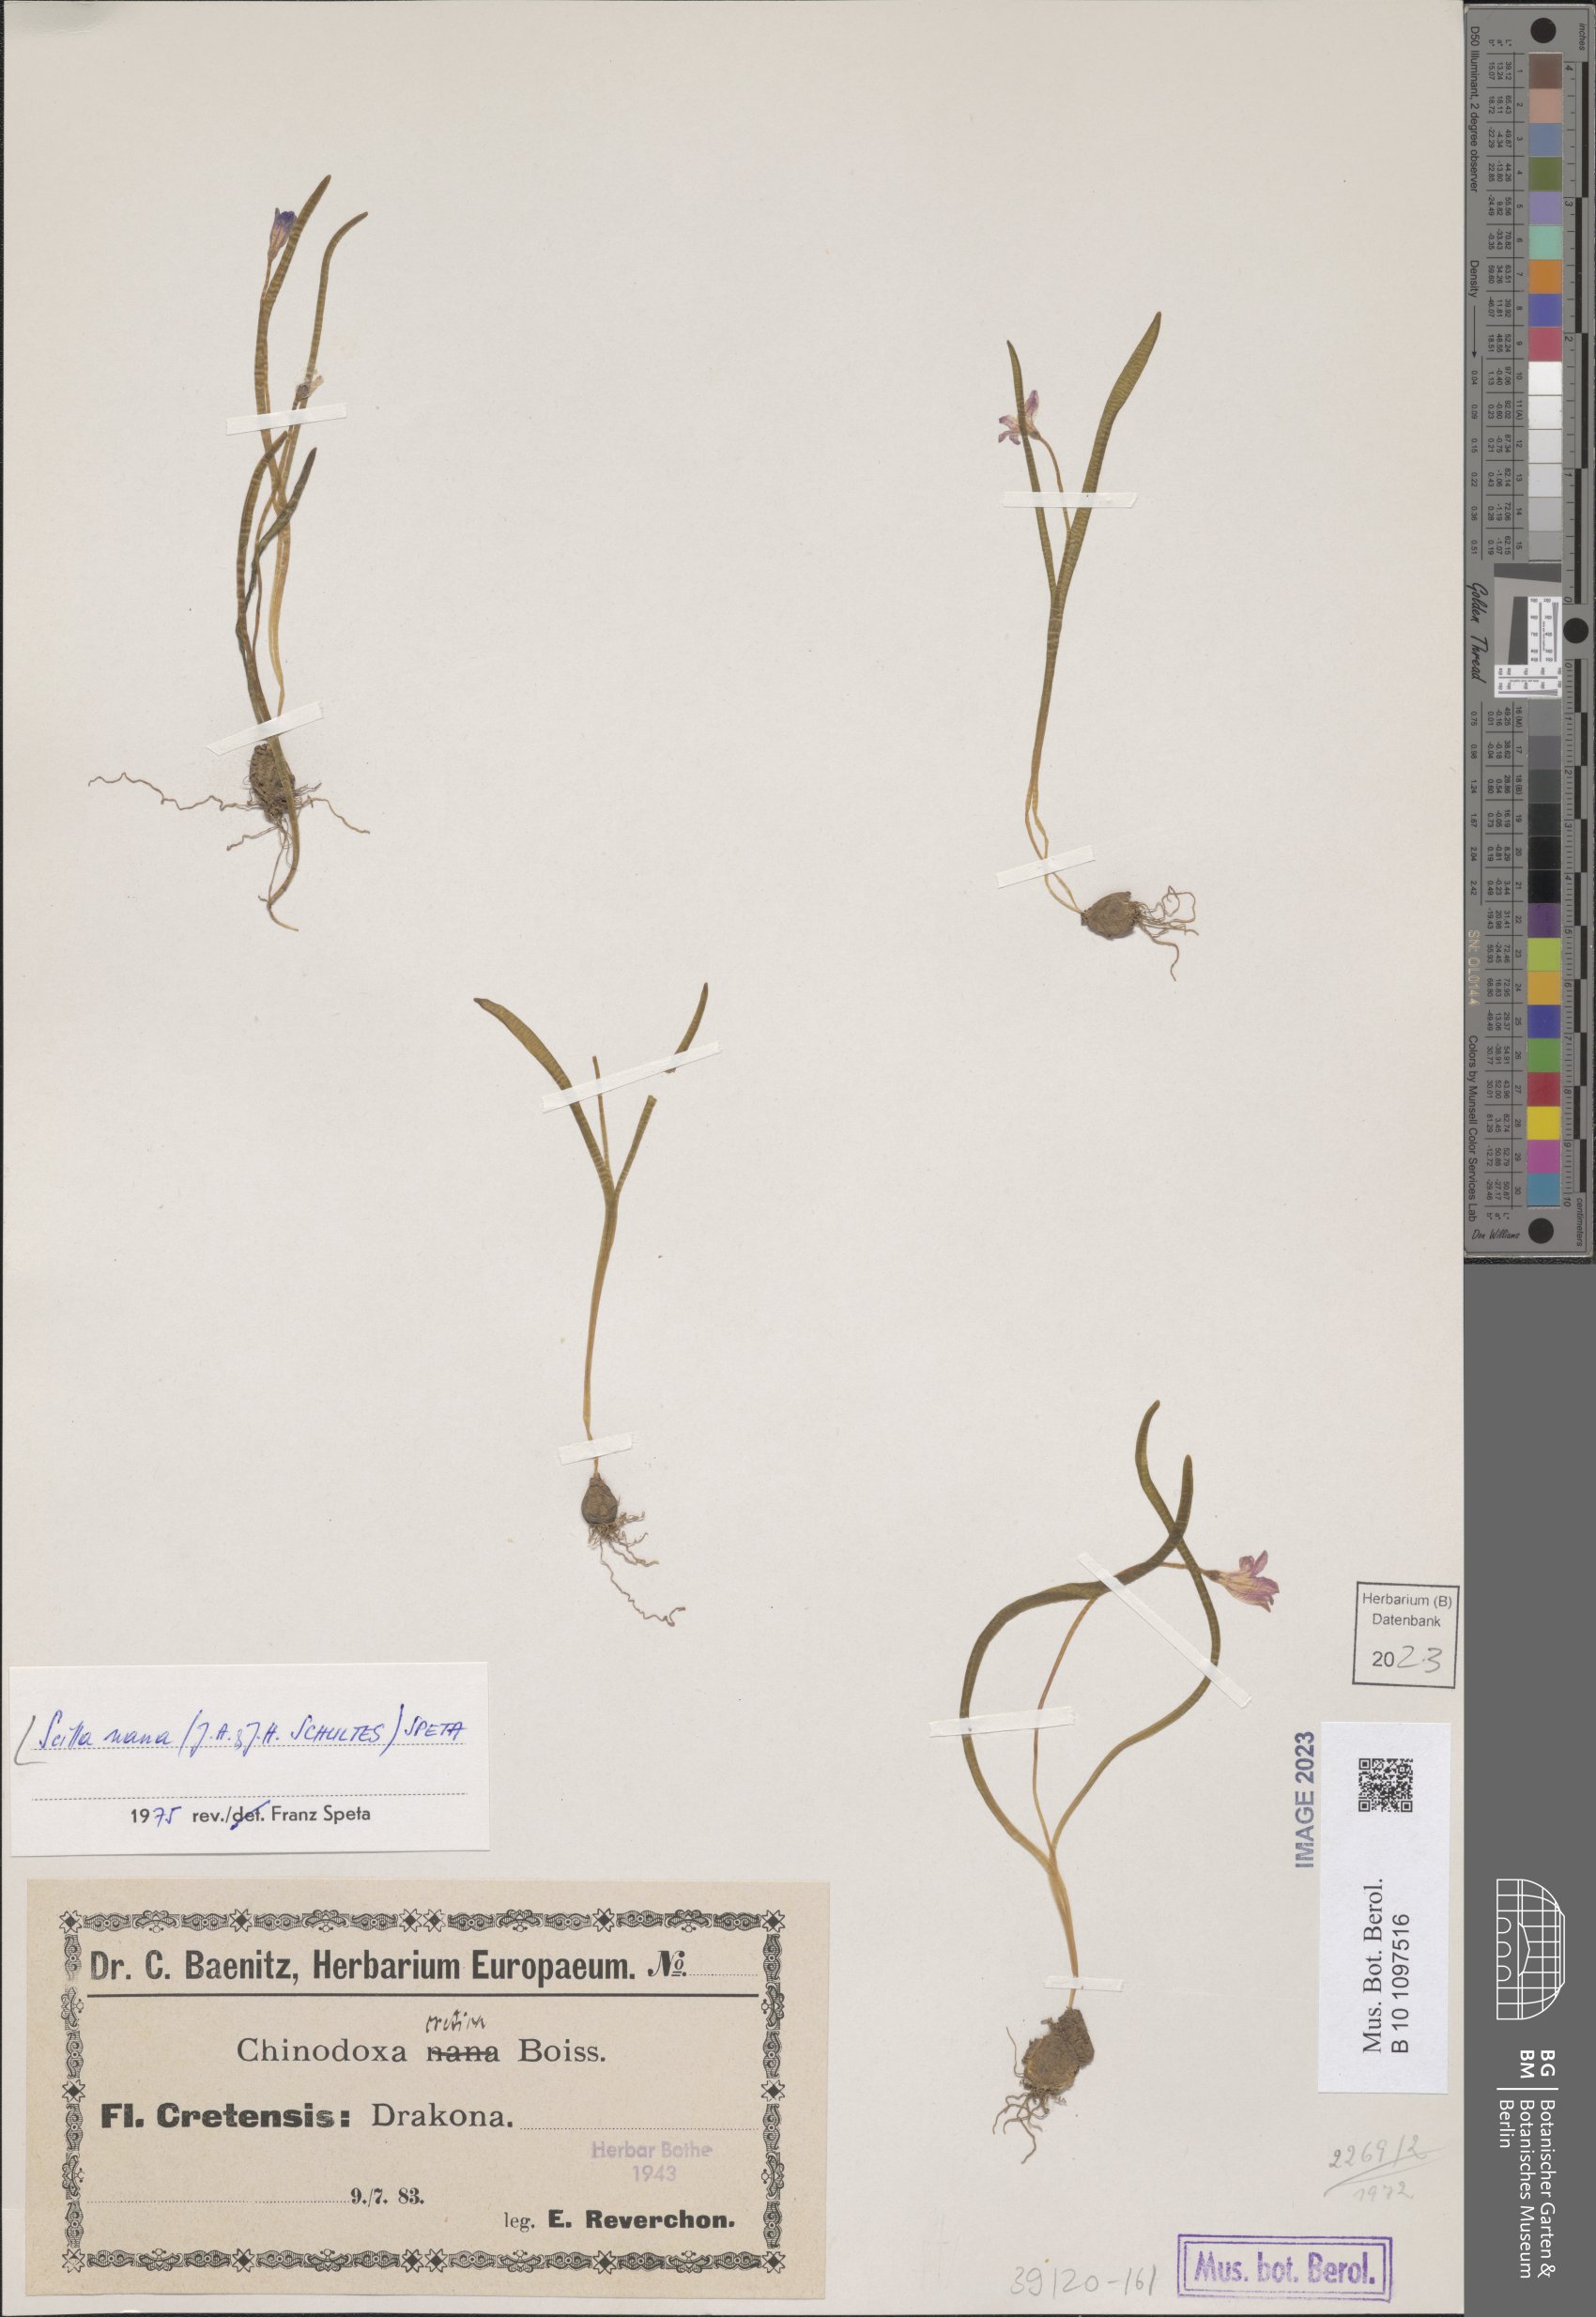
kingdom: Plantae
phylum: Tracheophyta
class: Liliopsida
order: Asparagales
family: Asparagaceae
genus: Scilla
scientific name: Scilla nana
